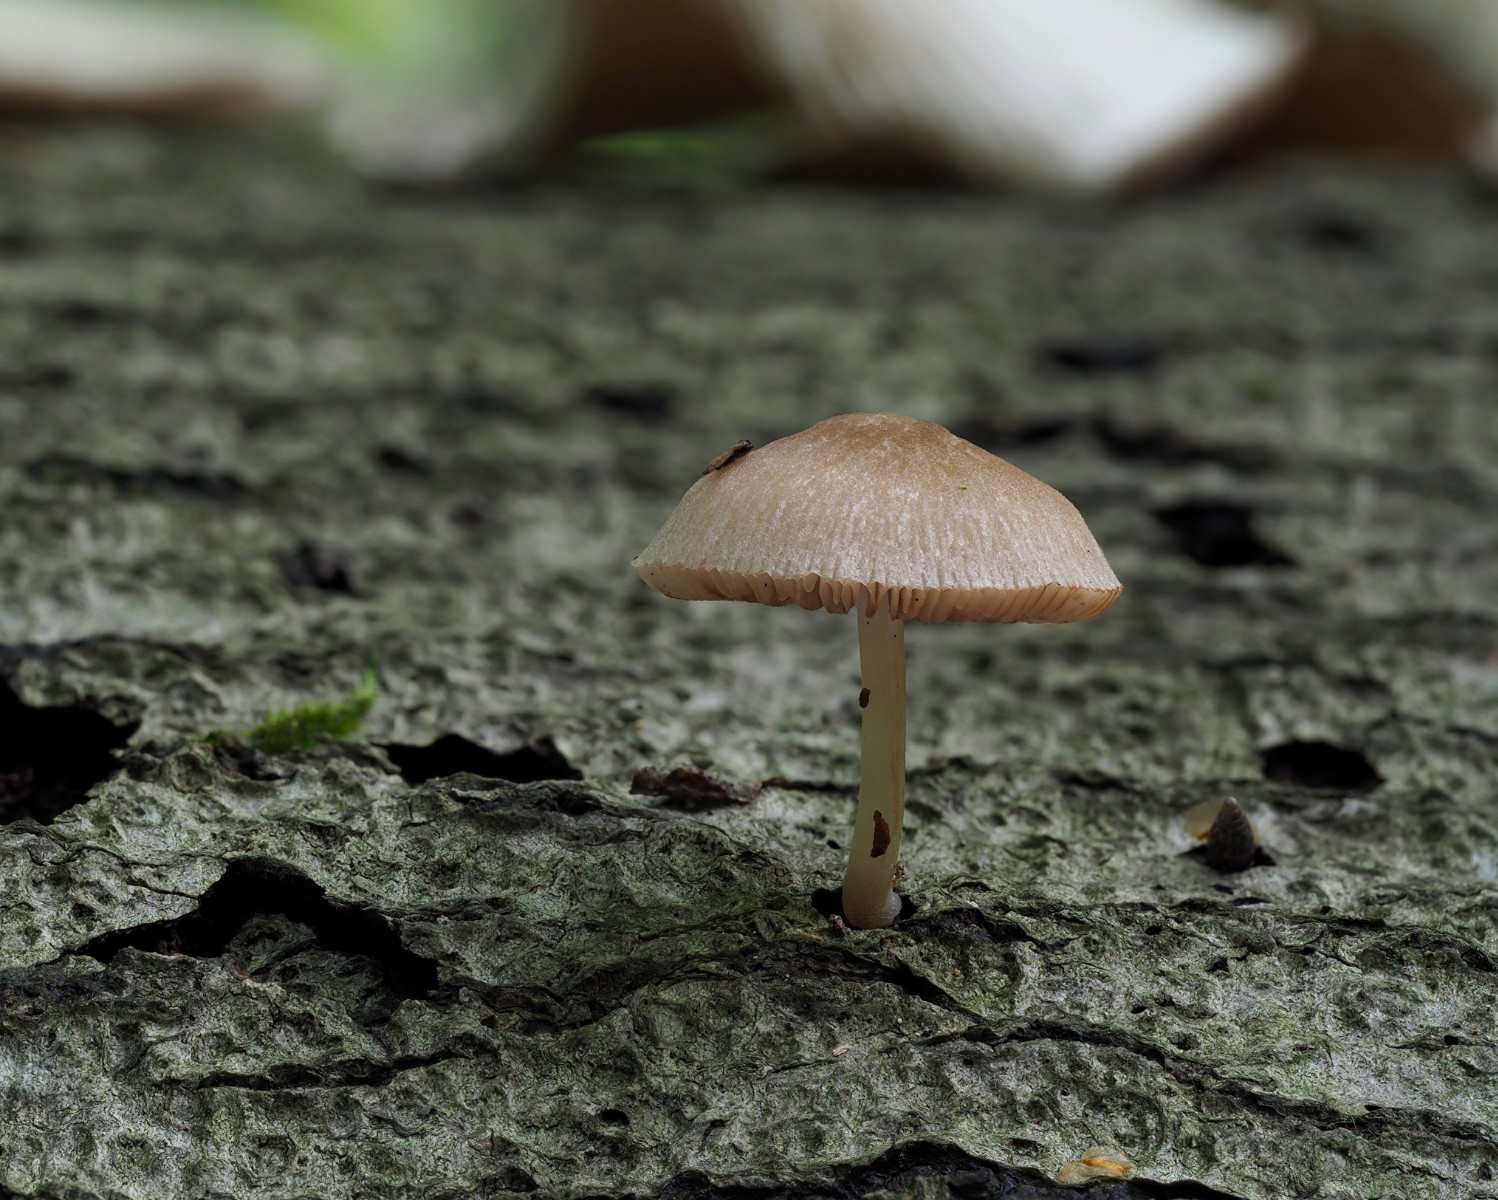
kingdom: Fungi
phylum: Basidiomycota
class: Agaricomycetes
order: Agaricales
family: Pluteaceae
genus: Pluteus
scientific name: Pluteus
